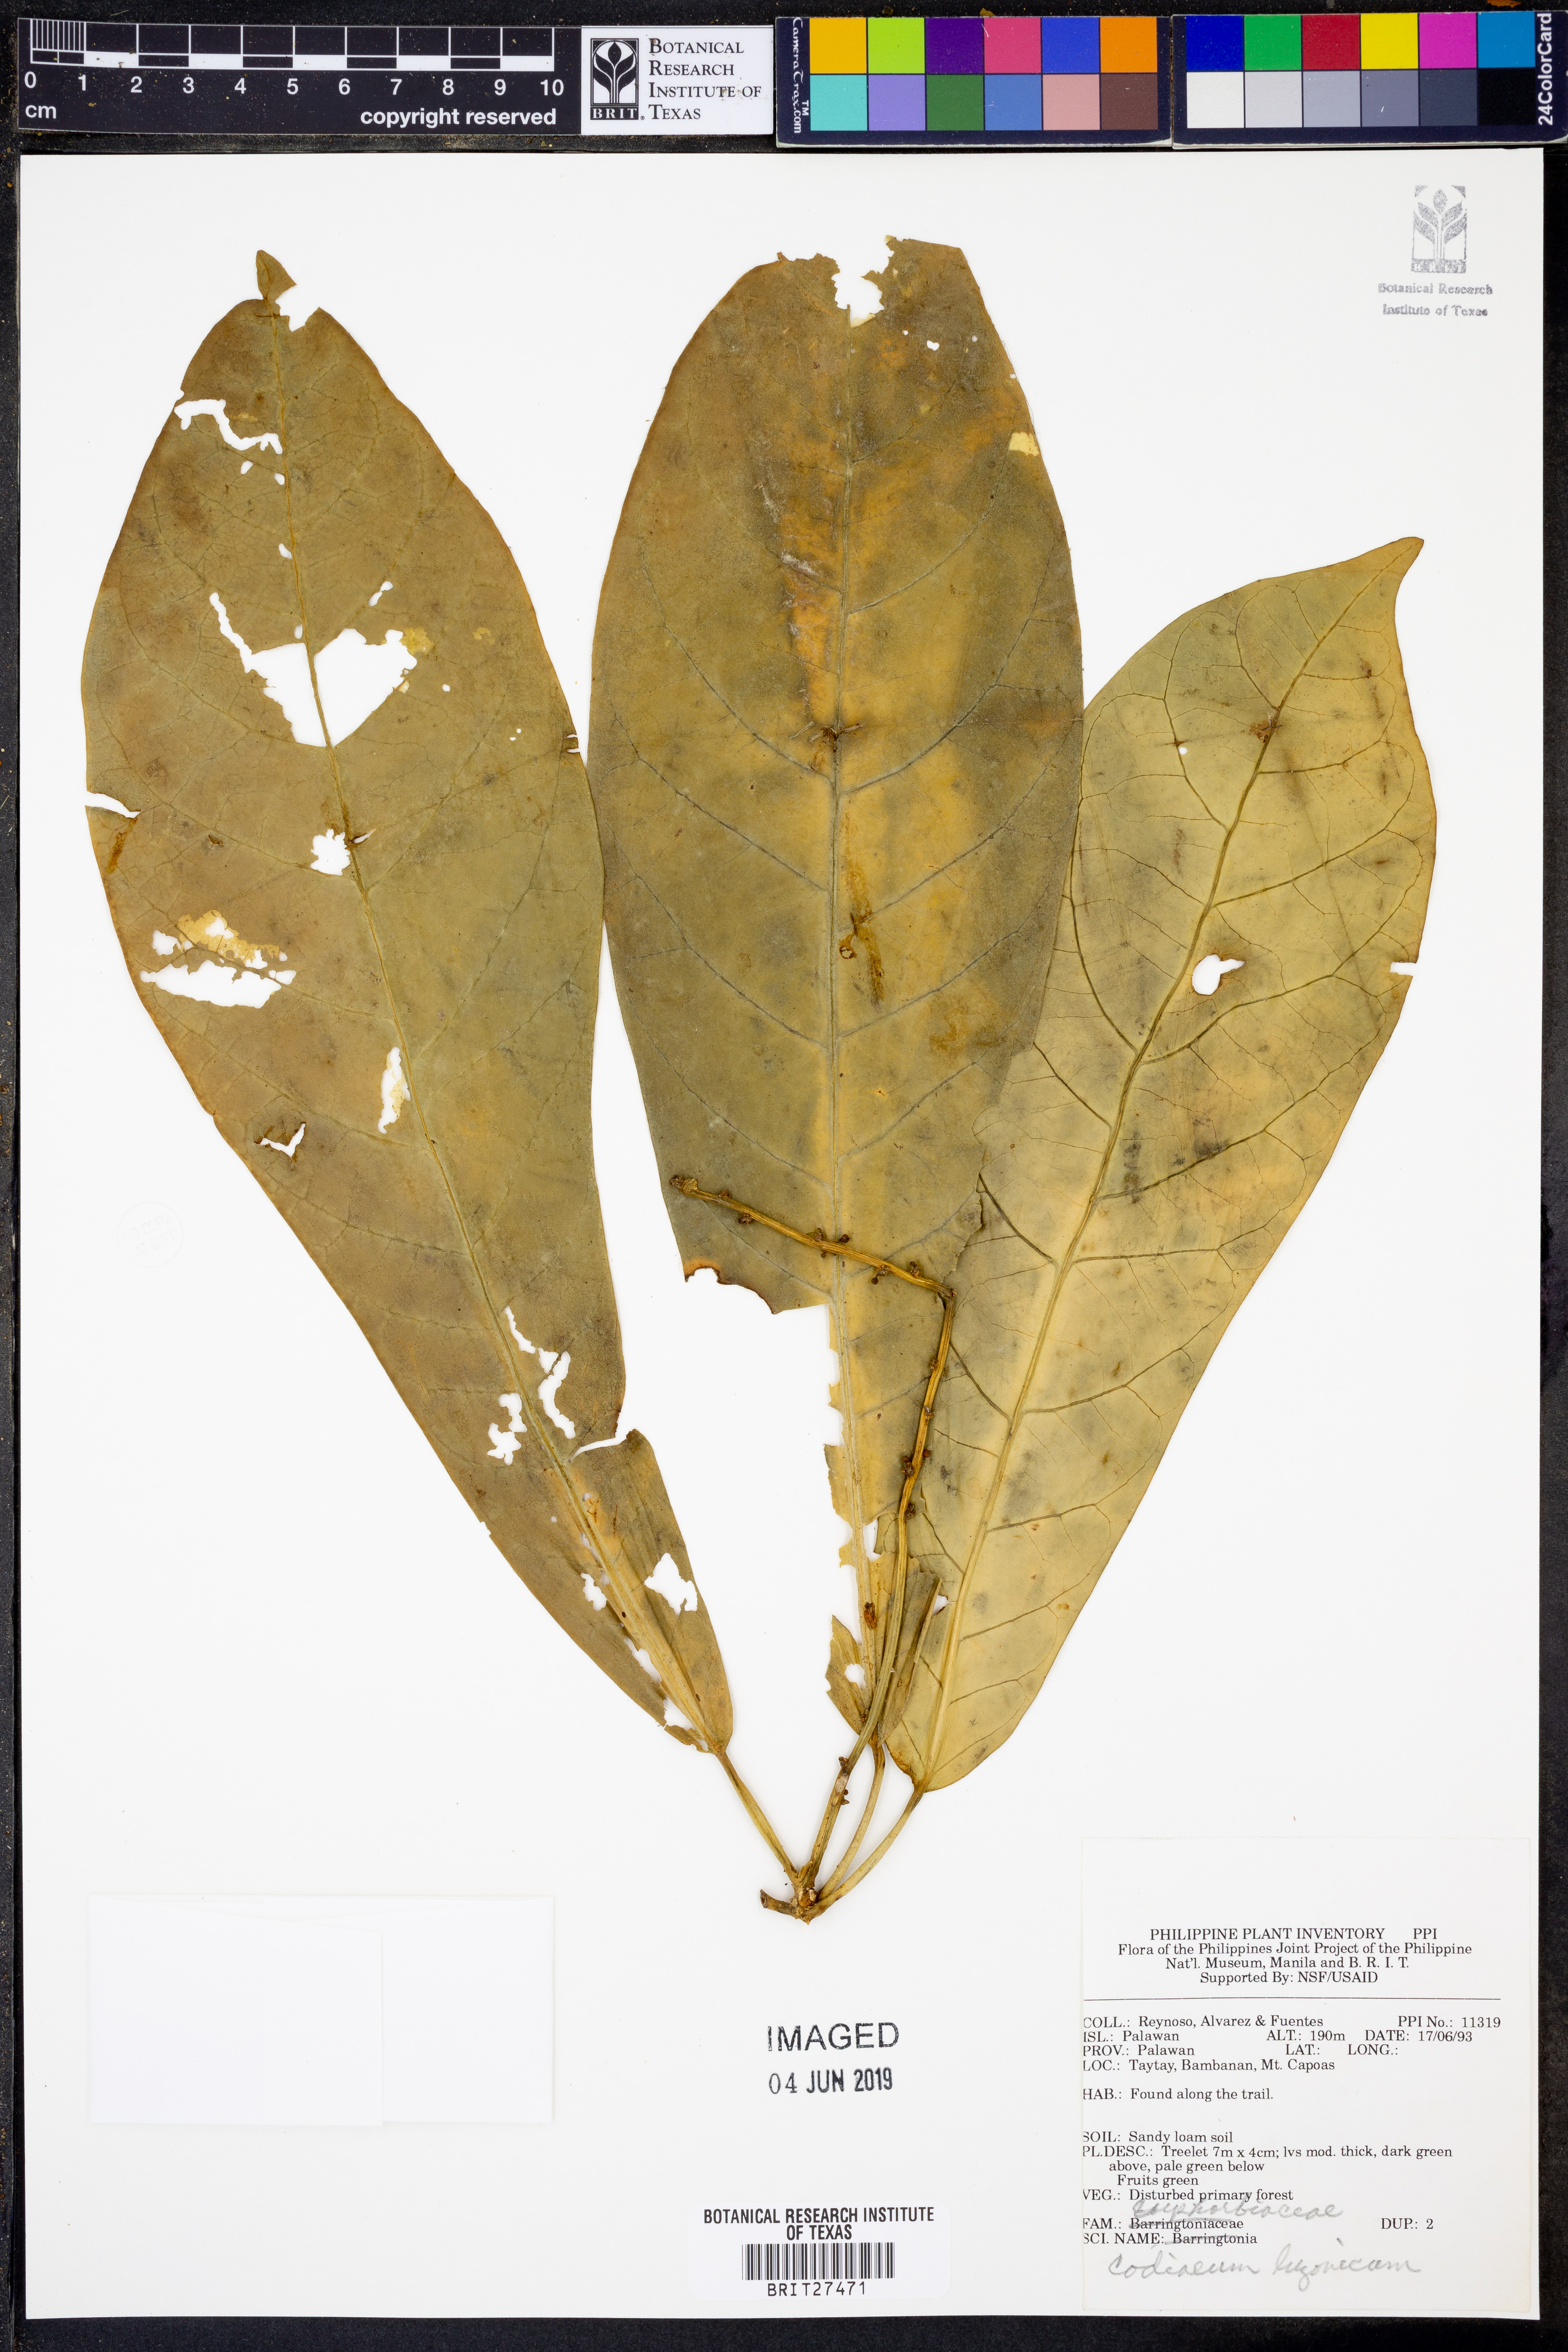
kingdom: Plantae
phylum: Tracheophyta
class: Magnoliopsida
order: Malpighiales
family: Euphorbiaceae
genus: Codiaeum
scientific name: Codiaeum luzonicum
